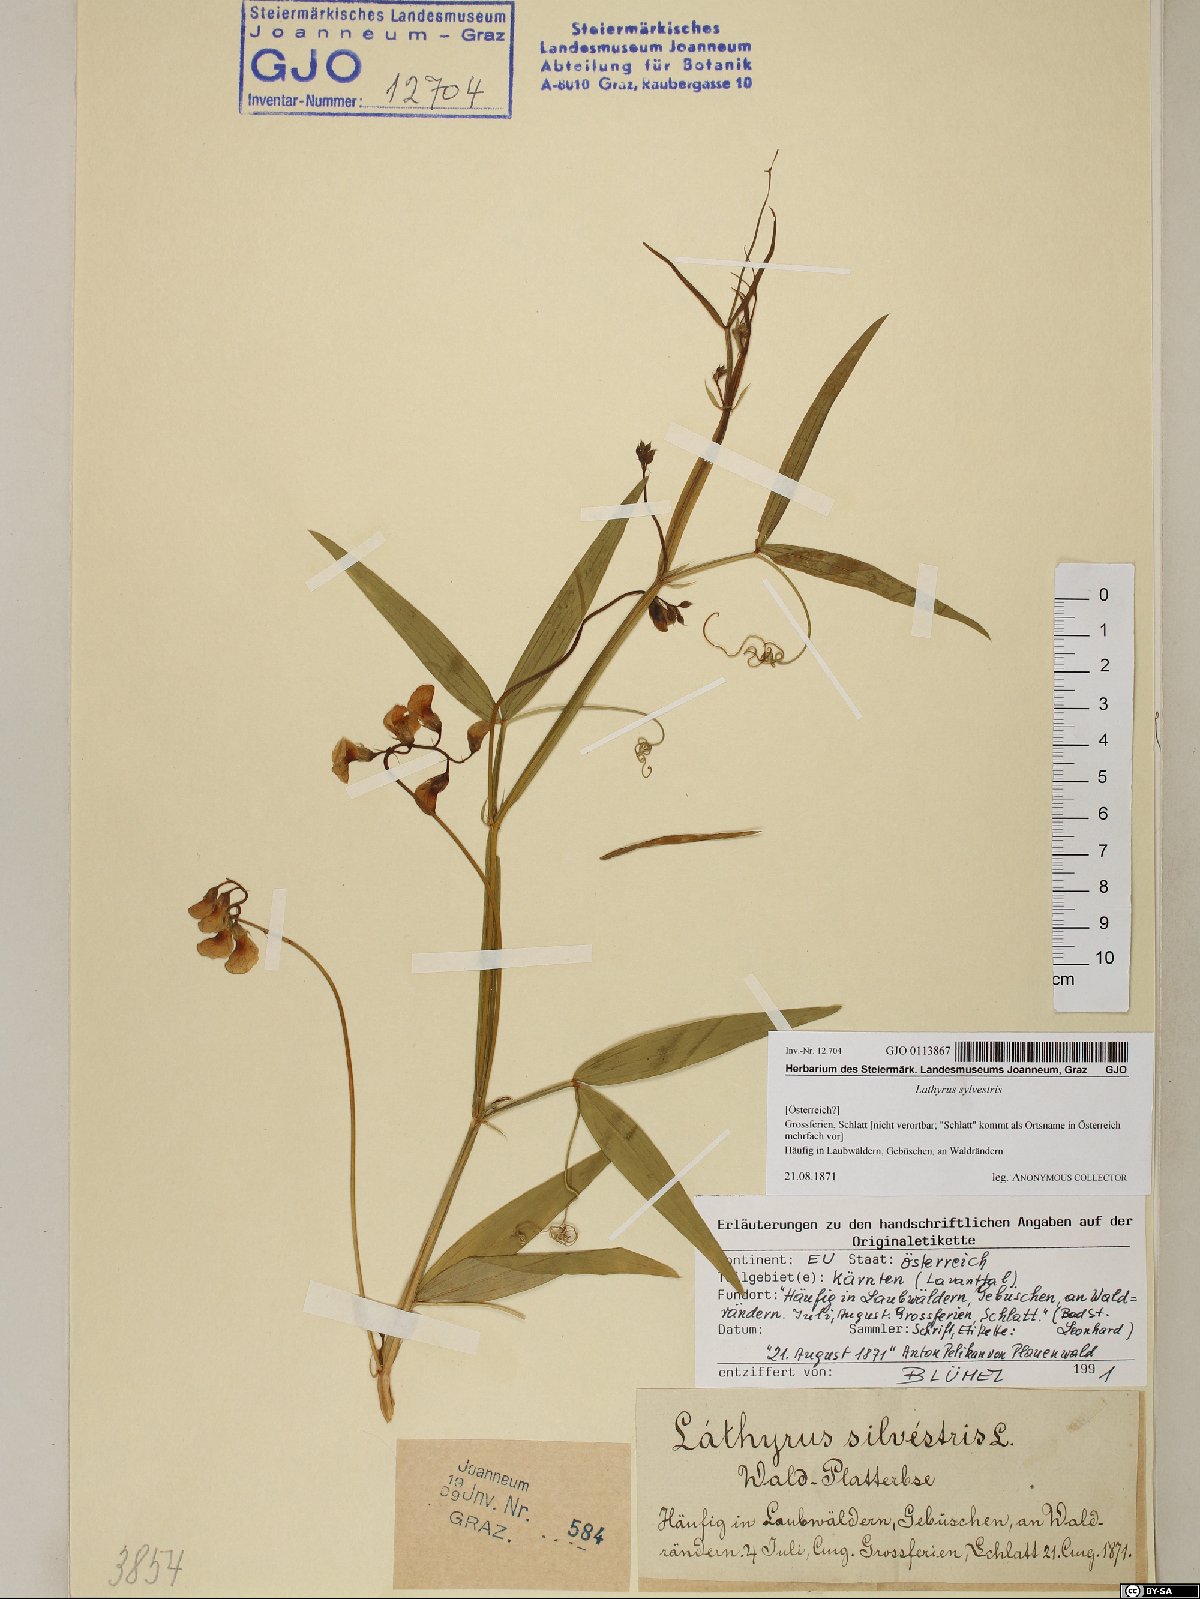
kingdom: Plantae
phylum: Tracheophyta
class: Magnoliopsida
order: Fabales
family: Fabaceae
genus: Lathyrus
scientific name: Lathyrus sylvestris
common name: Flat pea
